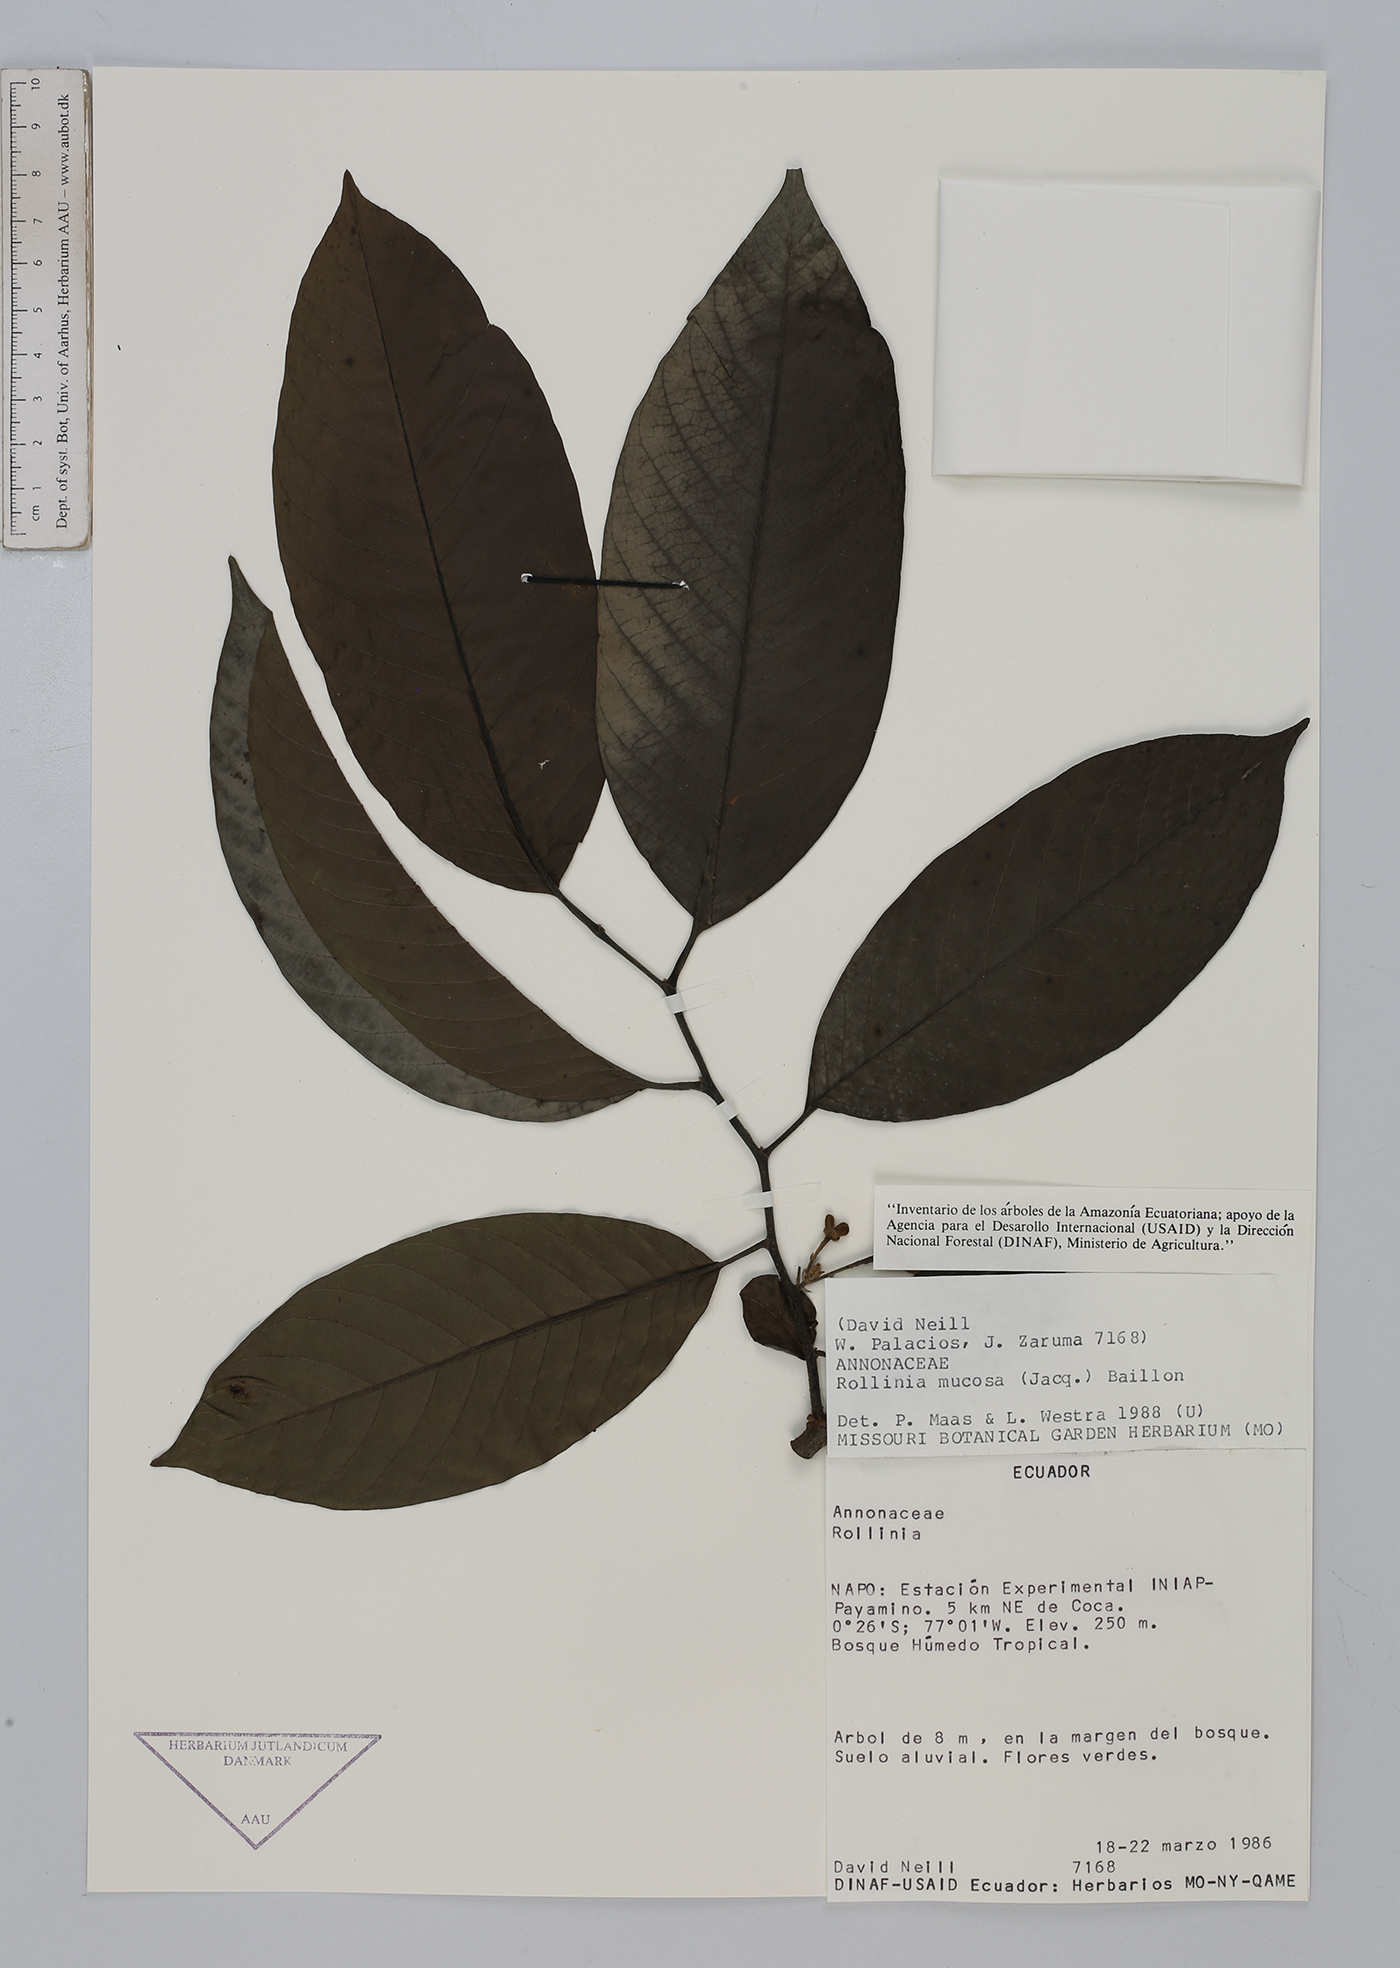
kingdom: Plantae
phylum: Tracheophyta
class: Magnoliopsida
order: Magnoliales
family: Annonaceae
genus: Annona
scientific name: Annona mucosa
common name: Sugar apple
